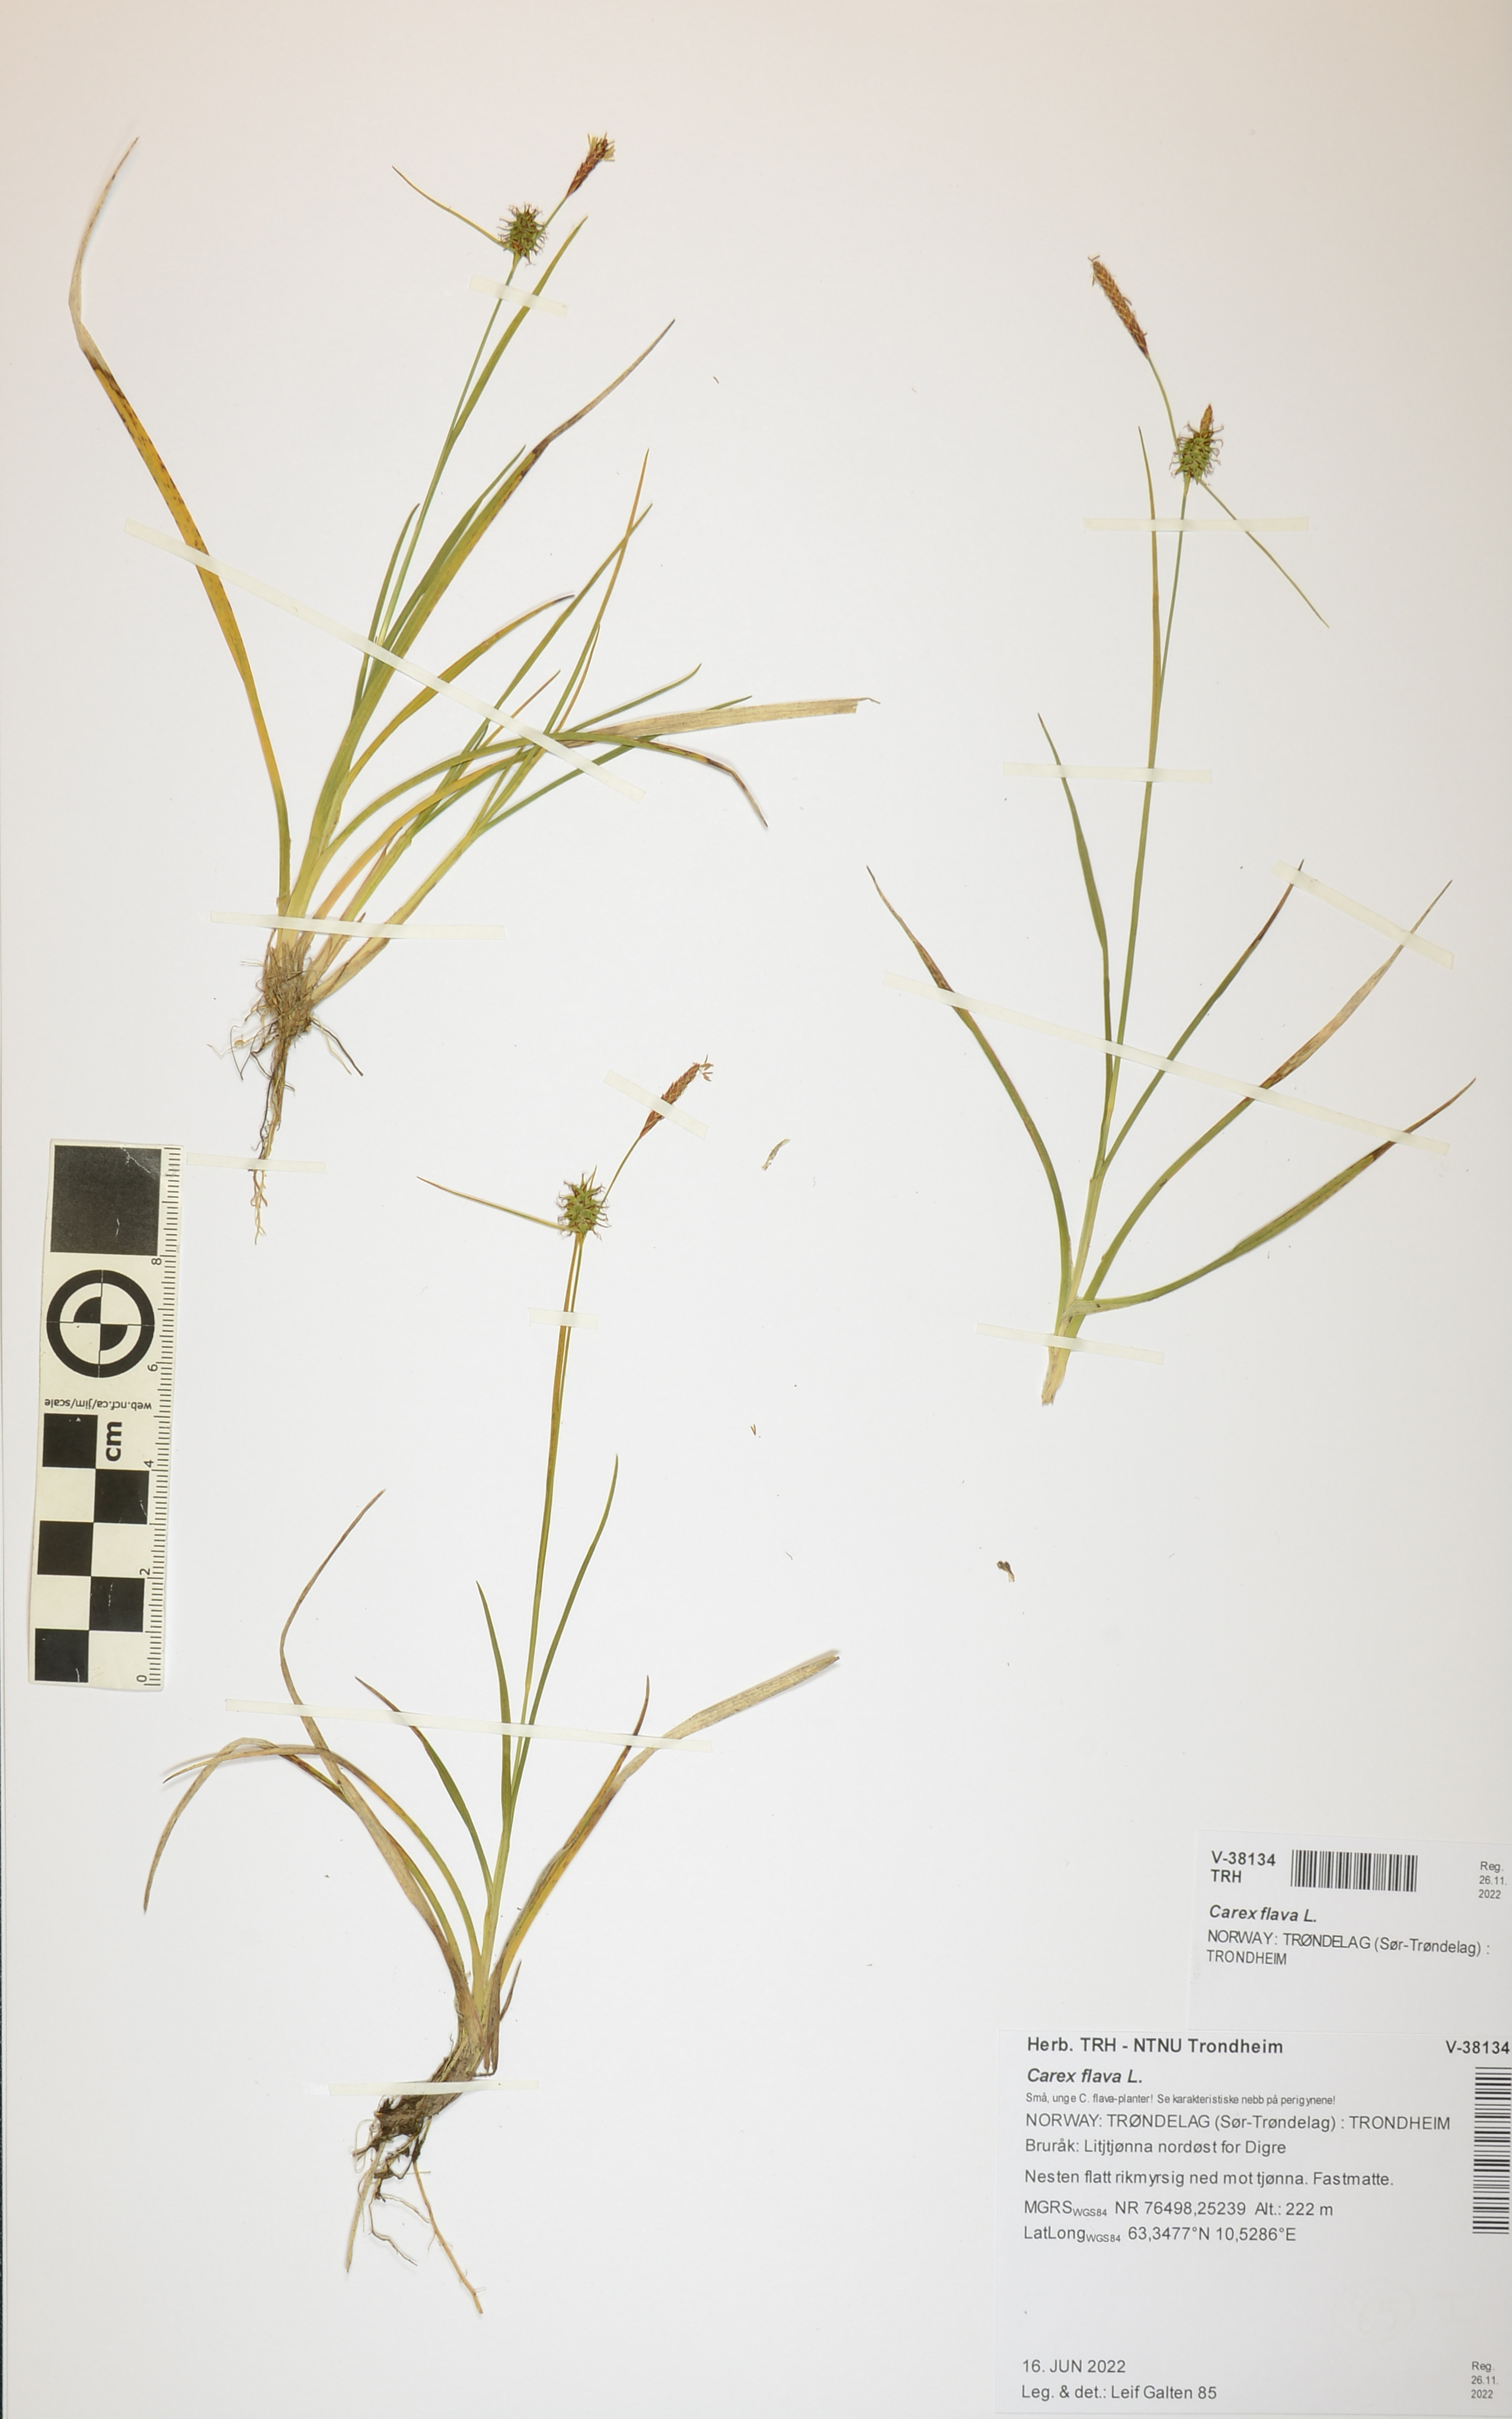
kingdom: Plantae
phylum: Tracheophyta
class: Liliopsida
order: Poales
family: Cyperaceae
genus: Carex
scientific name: Carex flava
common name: Large yellow-sedge
